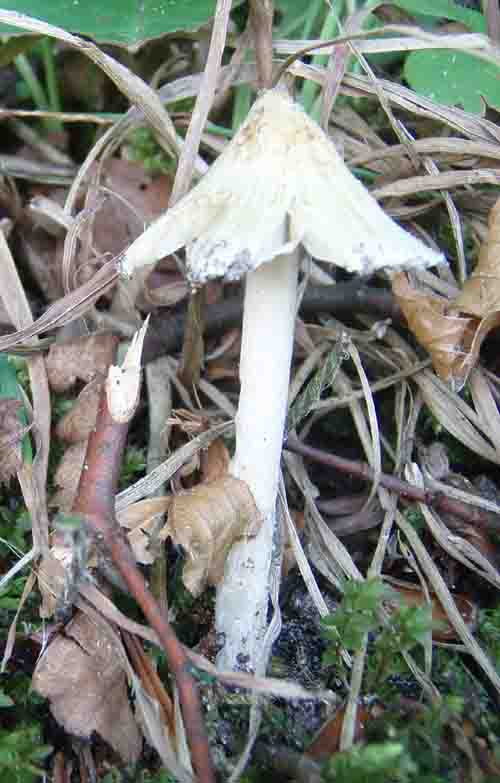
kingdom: Fungi
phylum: Basidiomycota
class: Agaricomycetes
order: Agaricales
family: Inocybaceae
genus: Pseudosperma
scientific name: Pseudosperma rimosum
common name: gulbladet trævlhat
